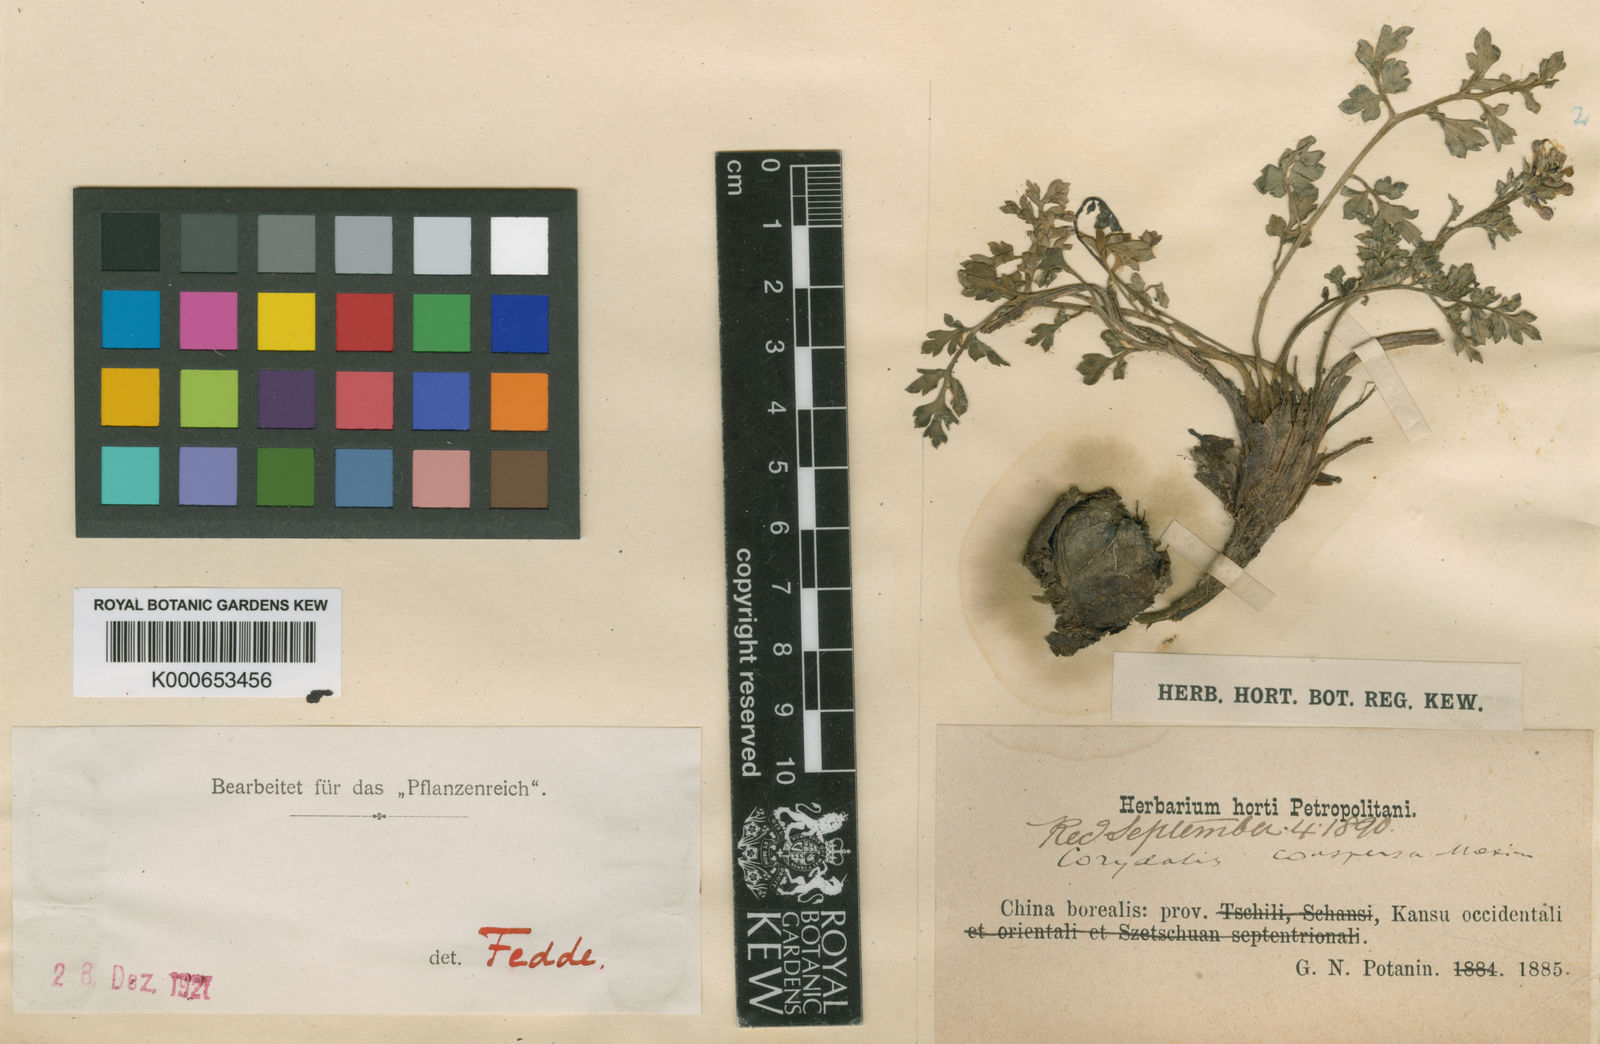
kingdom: Plantae
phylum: Tracheophyta
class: Magnoliopsida
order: Ranunculales
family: Papaveraceae
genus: Corydalis
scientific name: Corydalis conspersa
